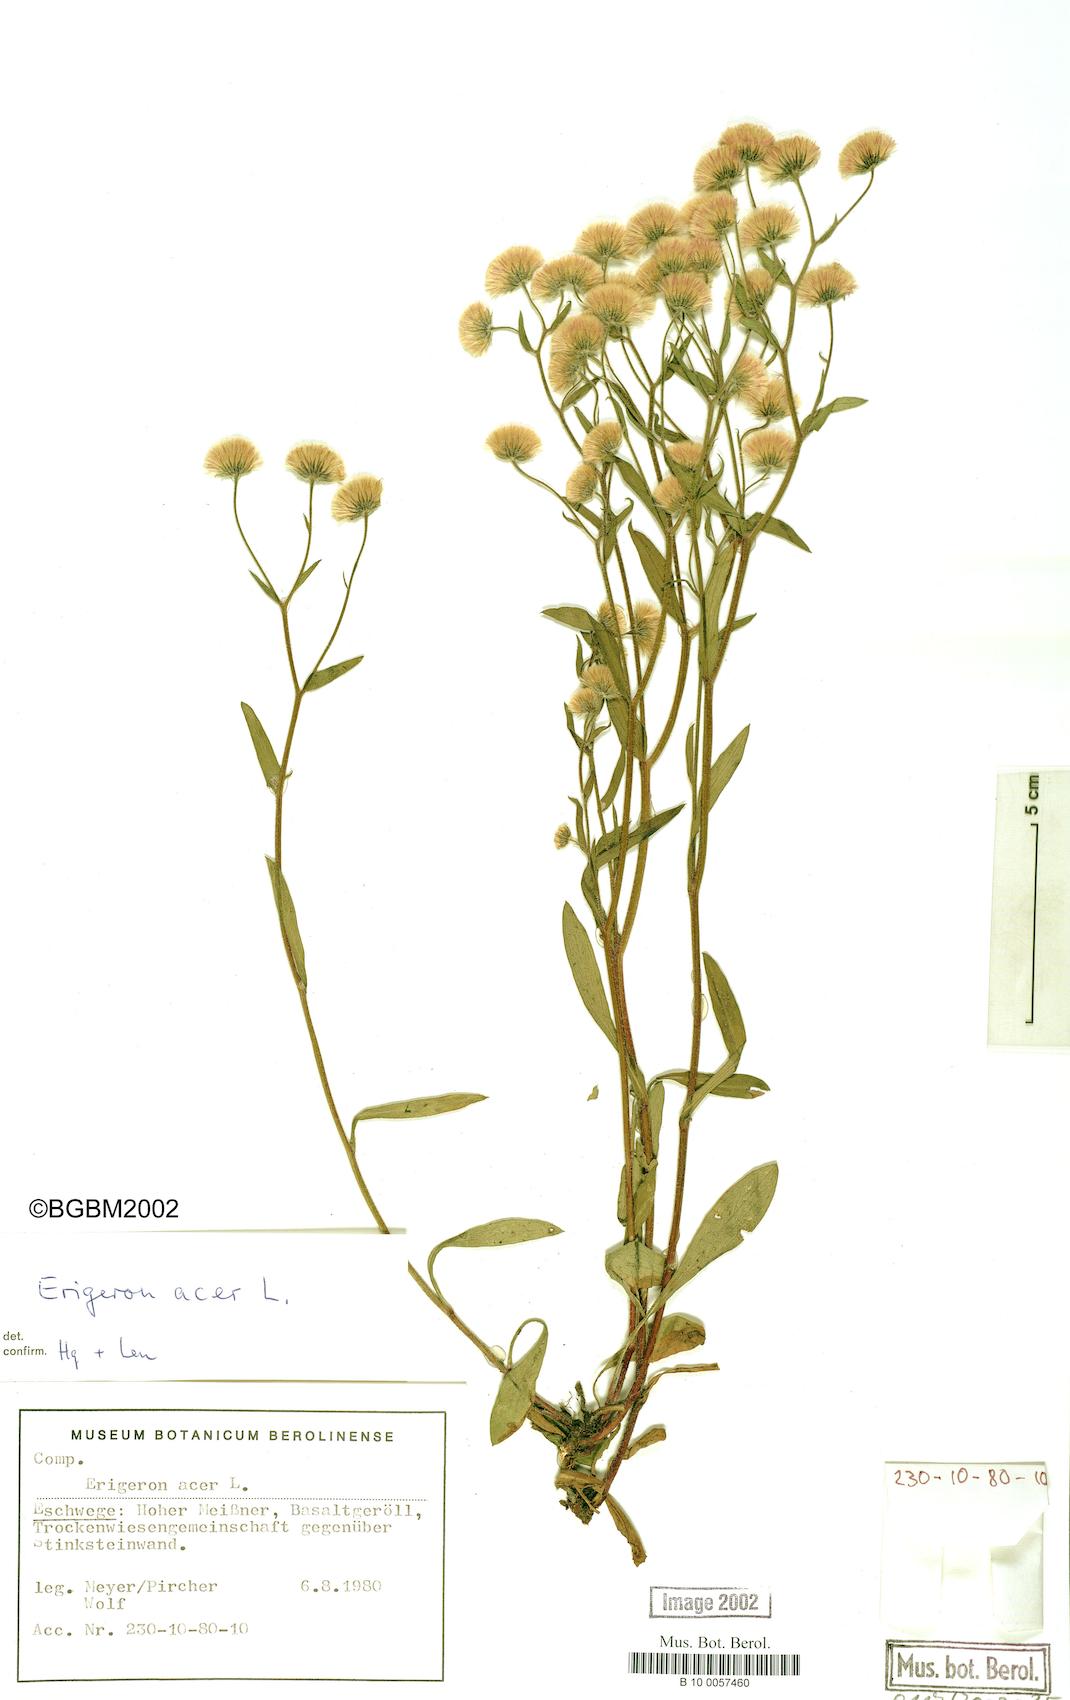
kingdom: Plantae
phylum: Tracheophyta
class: Magnoliopsida
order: Asterales
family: Asteraceae
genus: Erigeron
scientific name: Erigeron acris
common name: Blue fleabane
